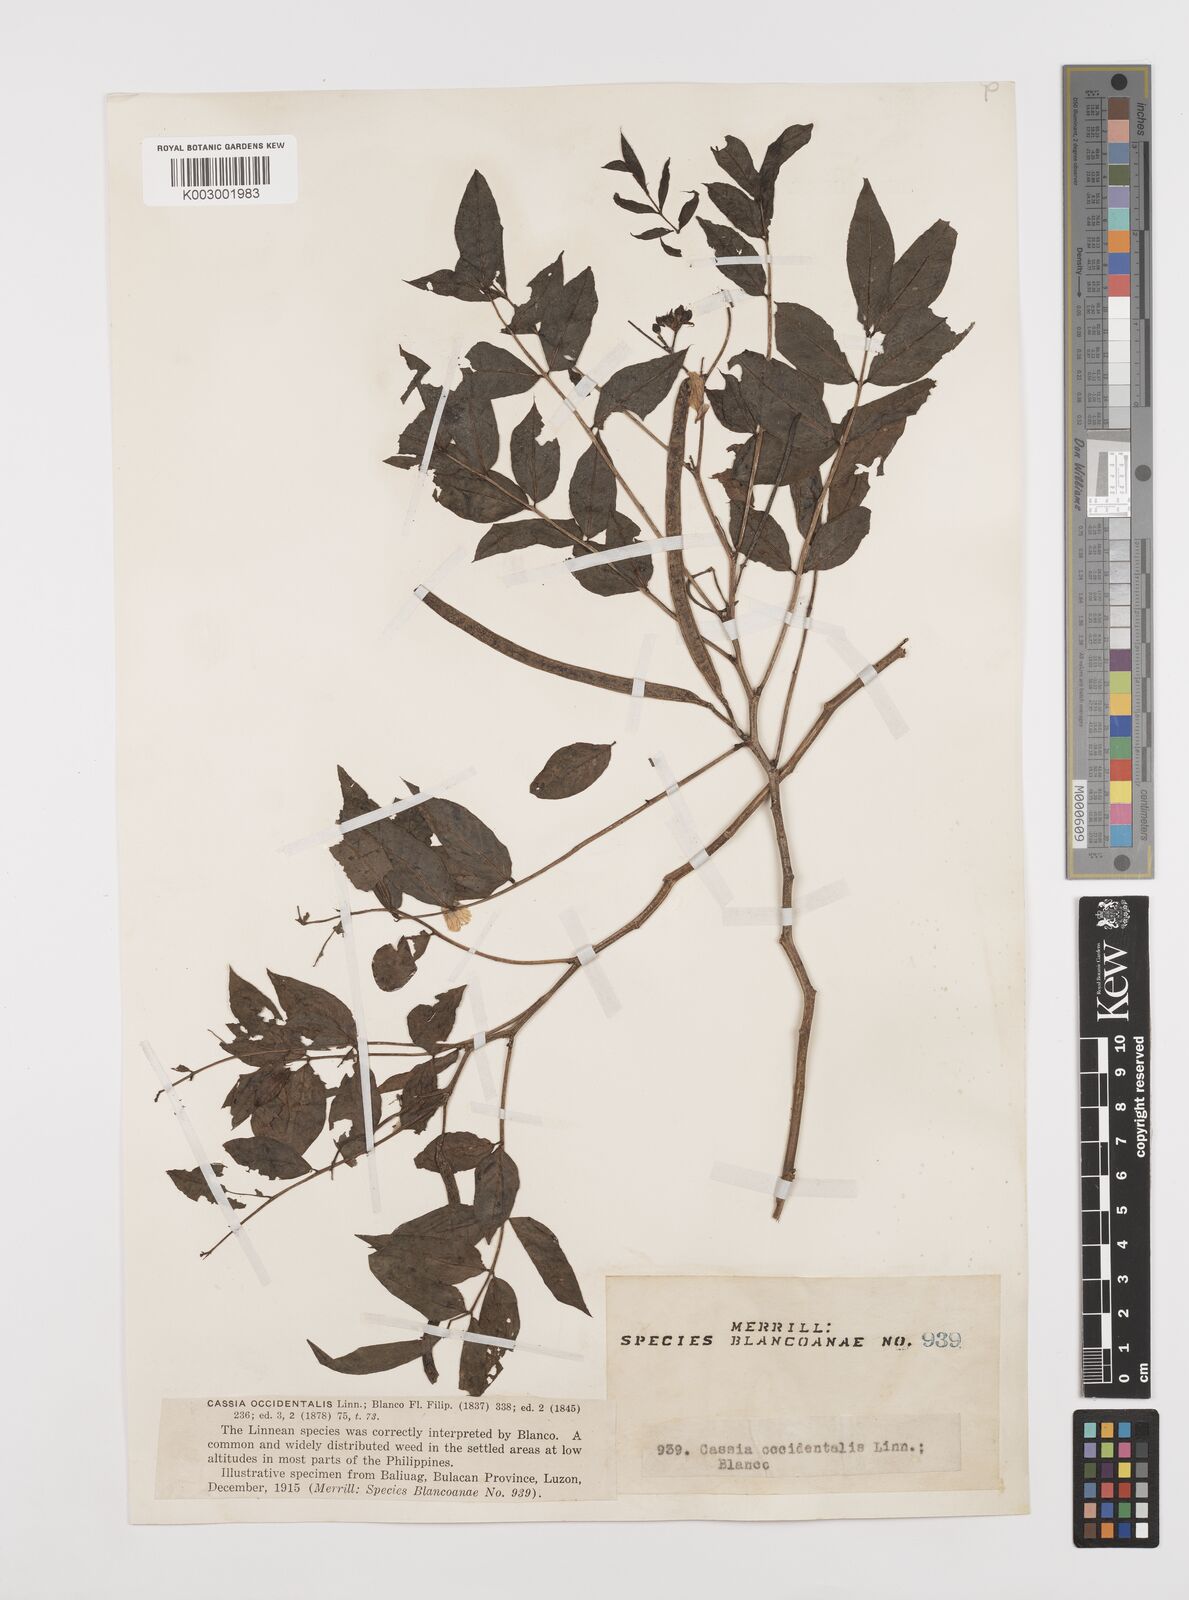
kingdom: Plantae
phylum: Tracheophyta
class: Magnoliopsida
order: Fabales
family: Fabaceae
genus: Senna
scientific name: Senna occidentalis
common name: Septicweed
